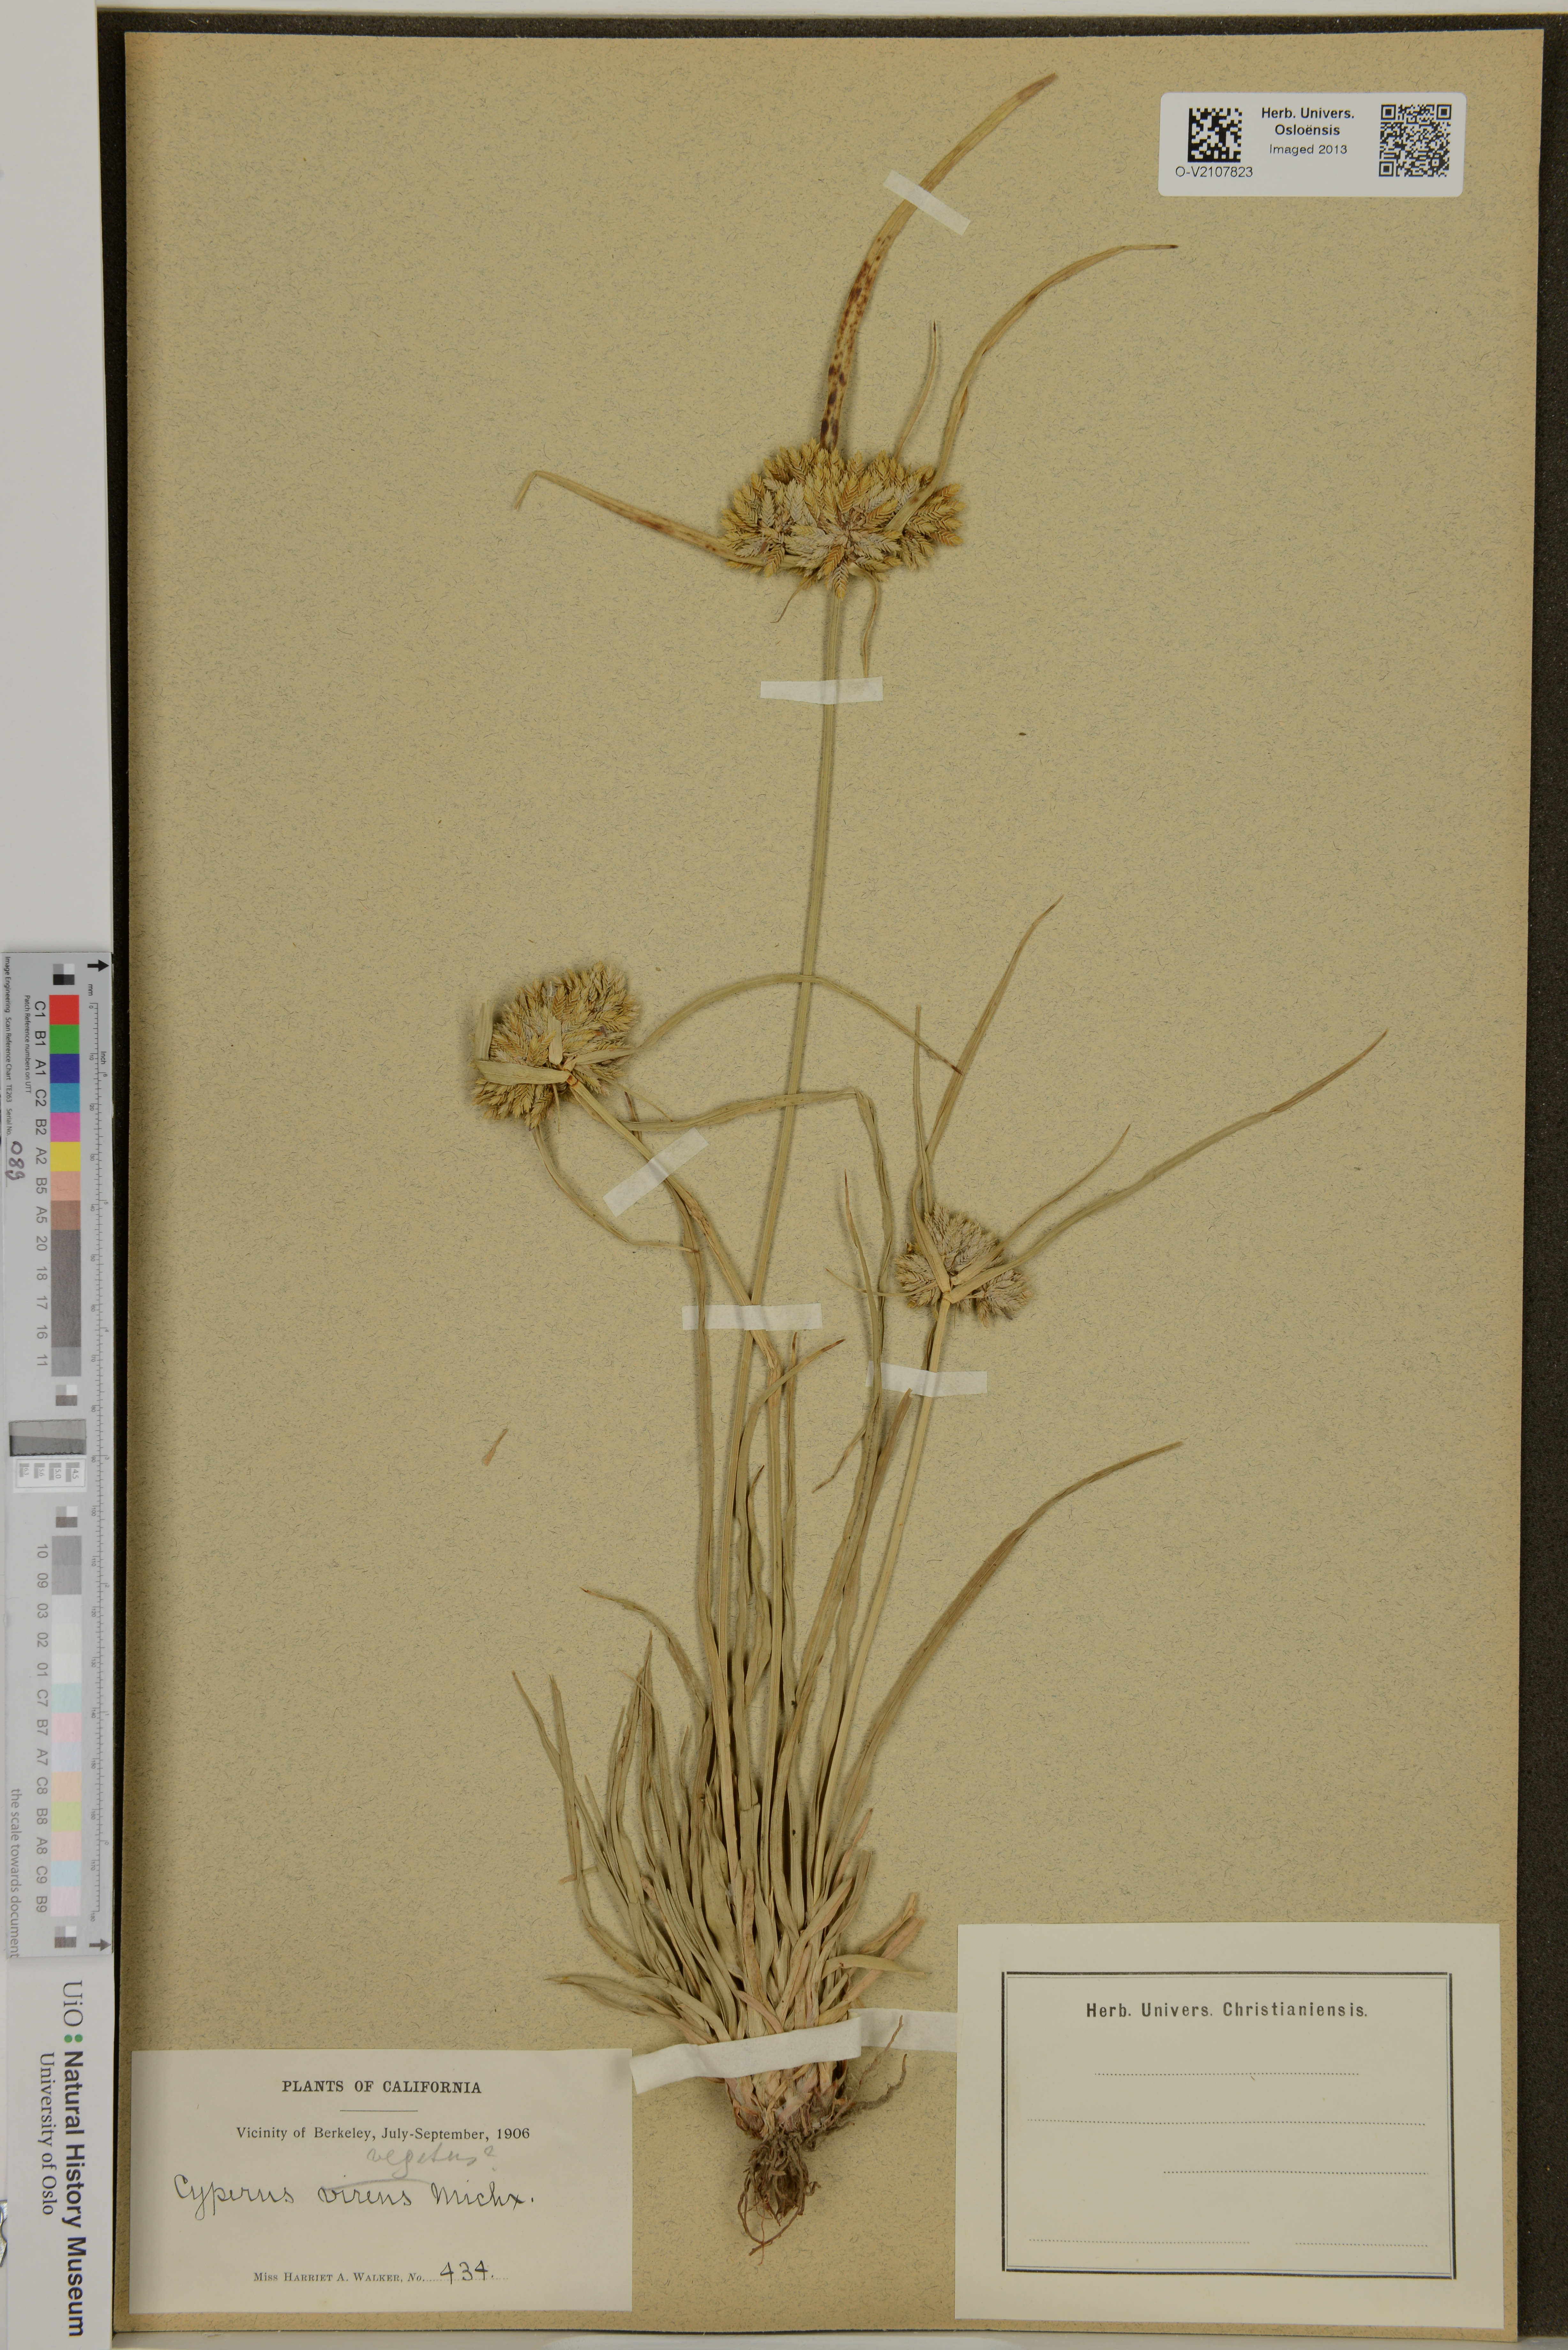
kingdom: Plantae
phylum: Tracheophyta
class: Liliopsida
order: Poales
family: Cyperaceae
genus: Cyperus
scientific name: Cyperus eragrostis
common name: Tall flatsedge
